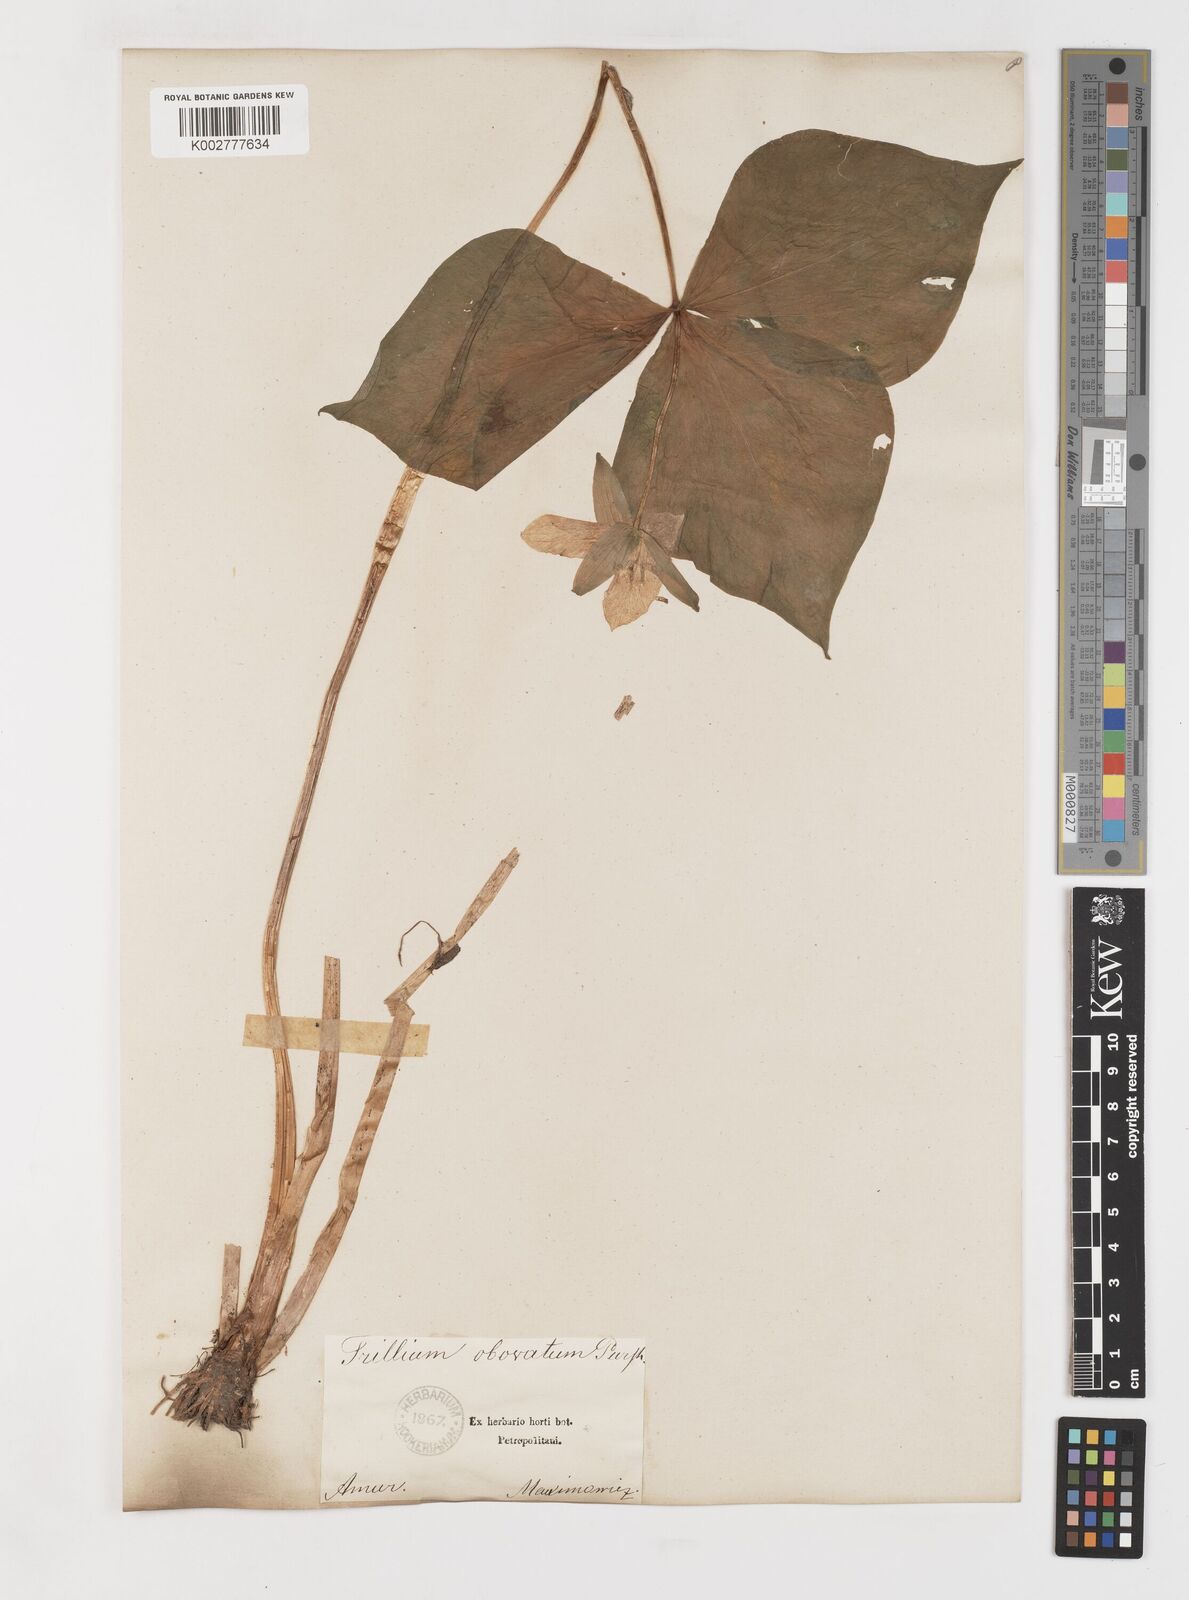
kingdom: Plantae
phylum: Tracheophyta
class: Liliopsida
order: Liliales
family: Melanthiaceae
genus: Trillium
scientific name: Trillium erectum
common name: Purple trillium
